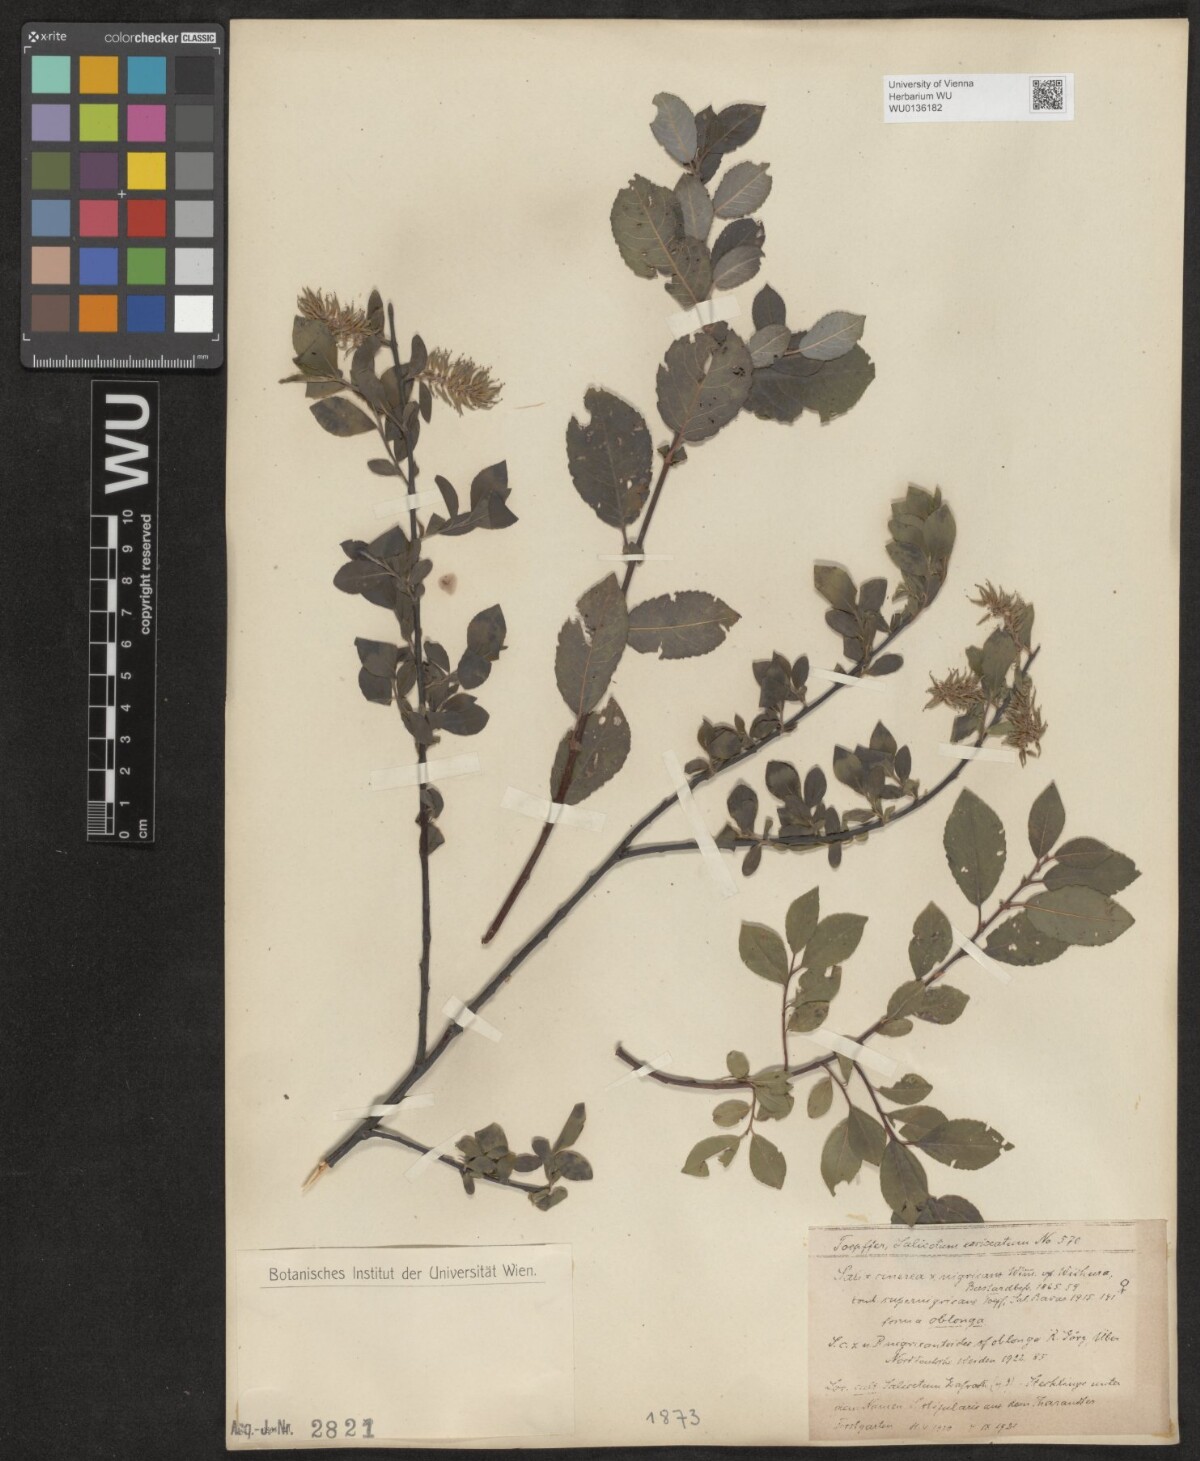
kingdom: Plantae
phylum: Tracheophyta
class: Magnoliopsida
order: Malpighiales
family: Salicaceae
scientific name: Salicaceae
